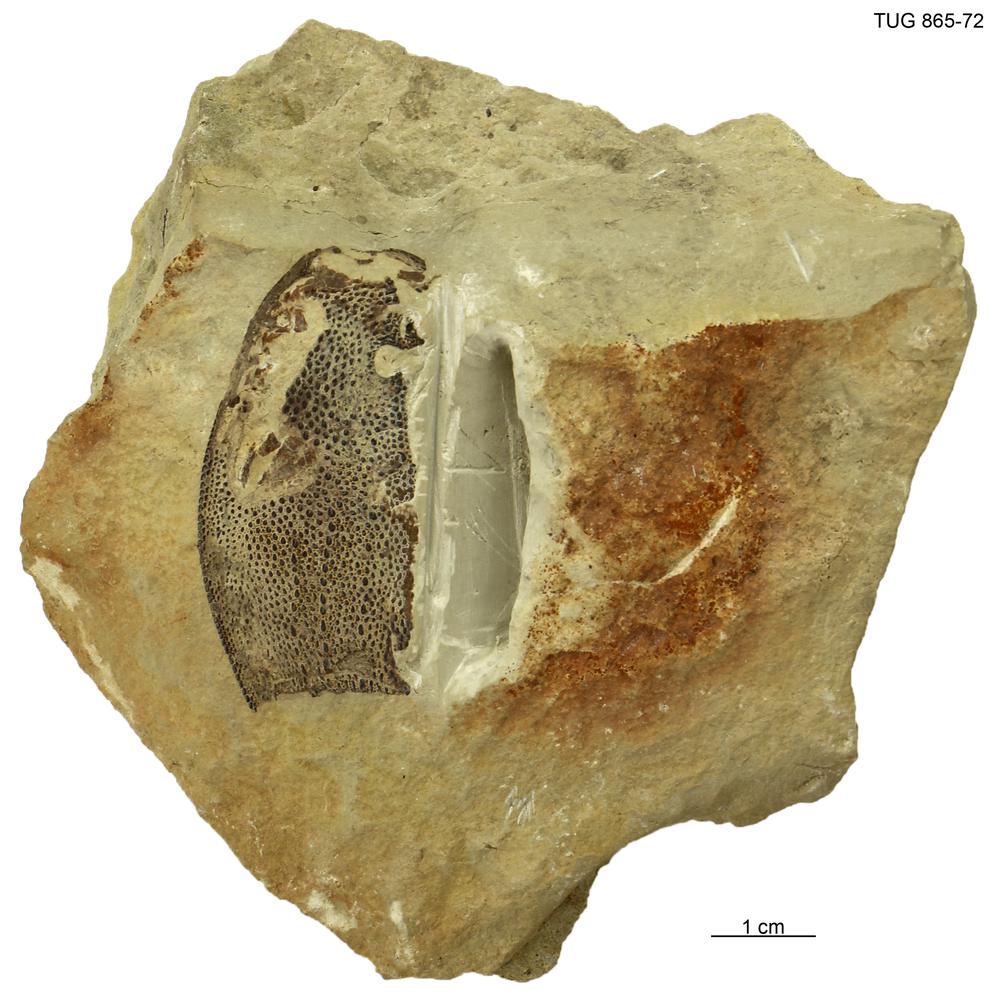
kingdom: Animalia
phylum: Chordata
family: Dartmuthiidae
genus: Dartmuthia
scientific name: Dartmuthia
